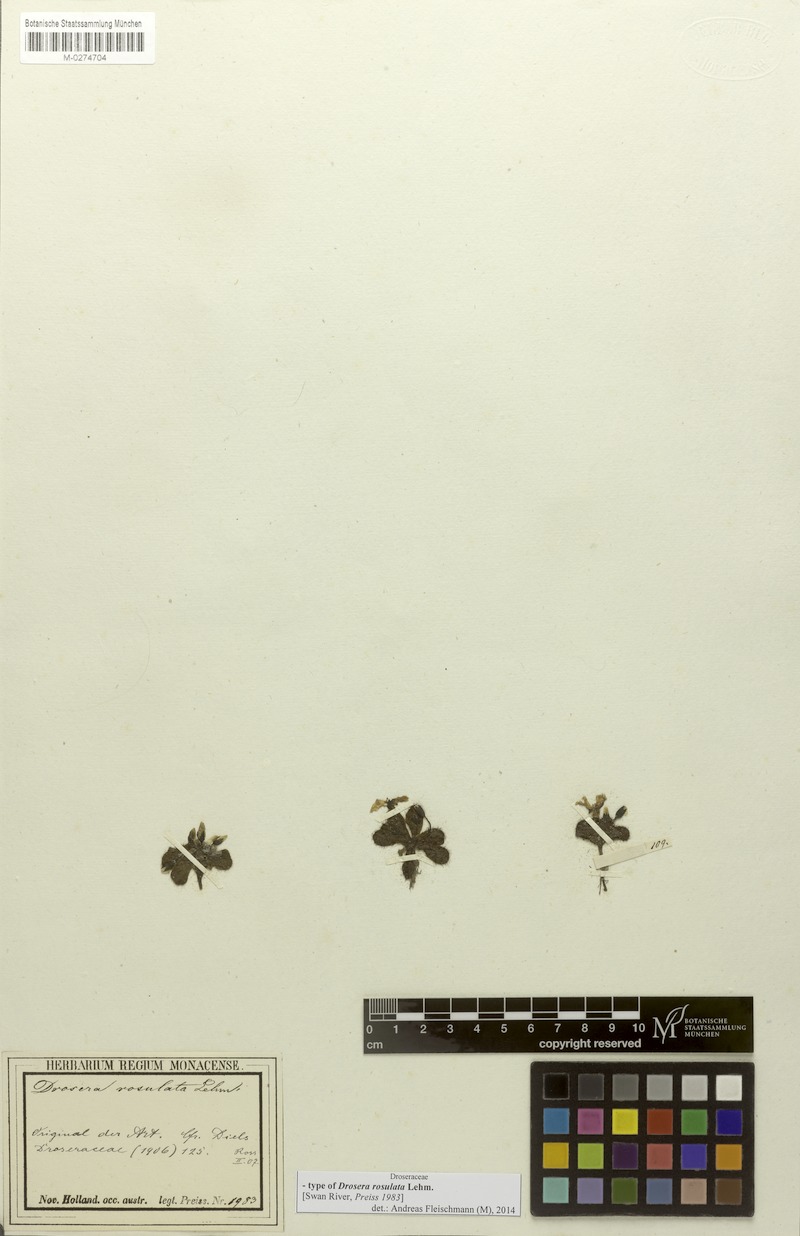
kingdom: Plantae
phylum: Tracheophyta
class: Magnoliopsida
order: Caryophyllales
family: Droseraceae
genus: Drosera
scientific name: Drosera rosulata
